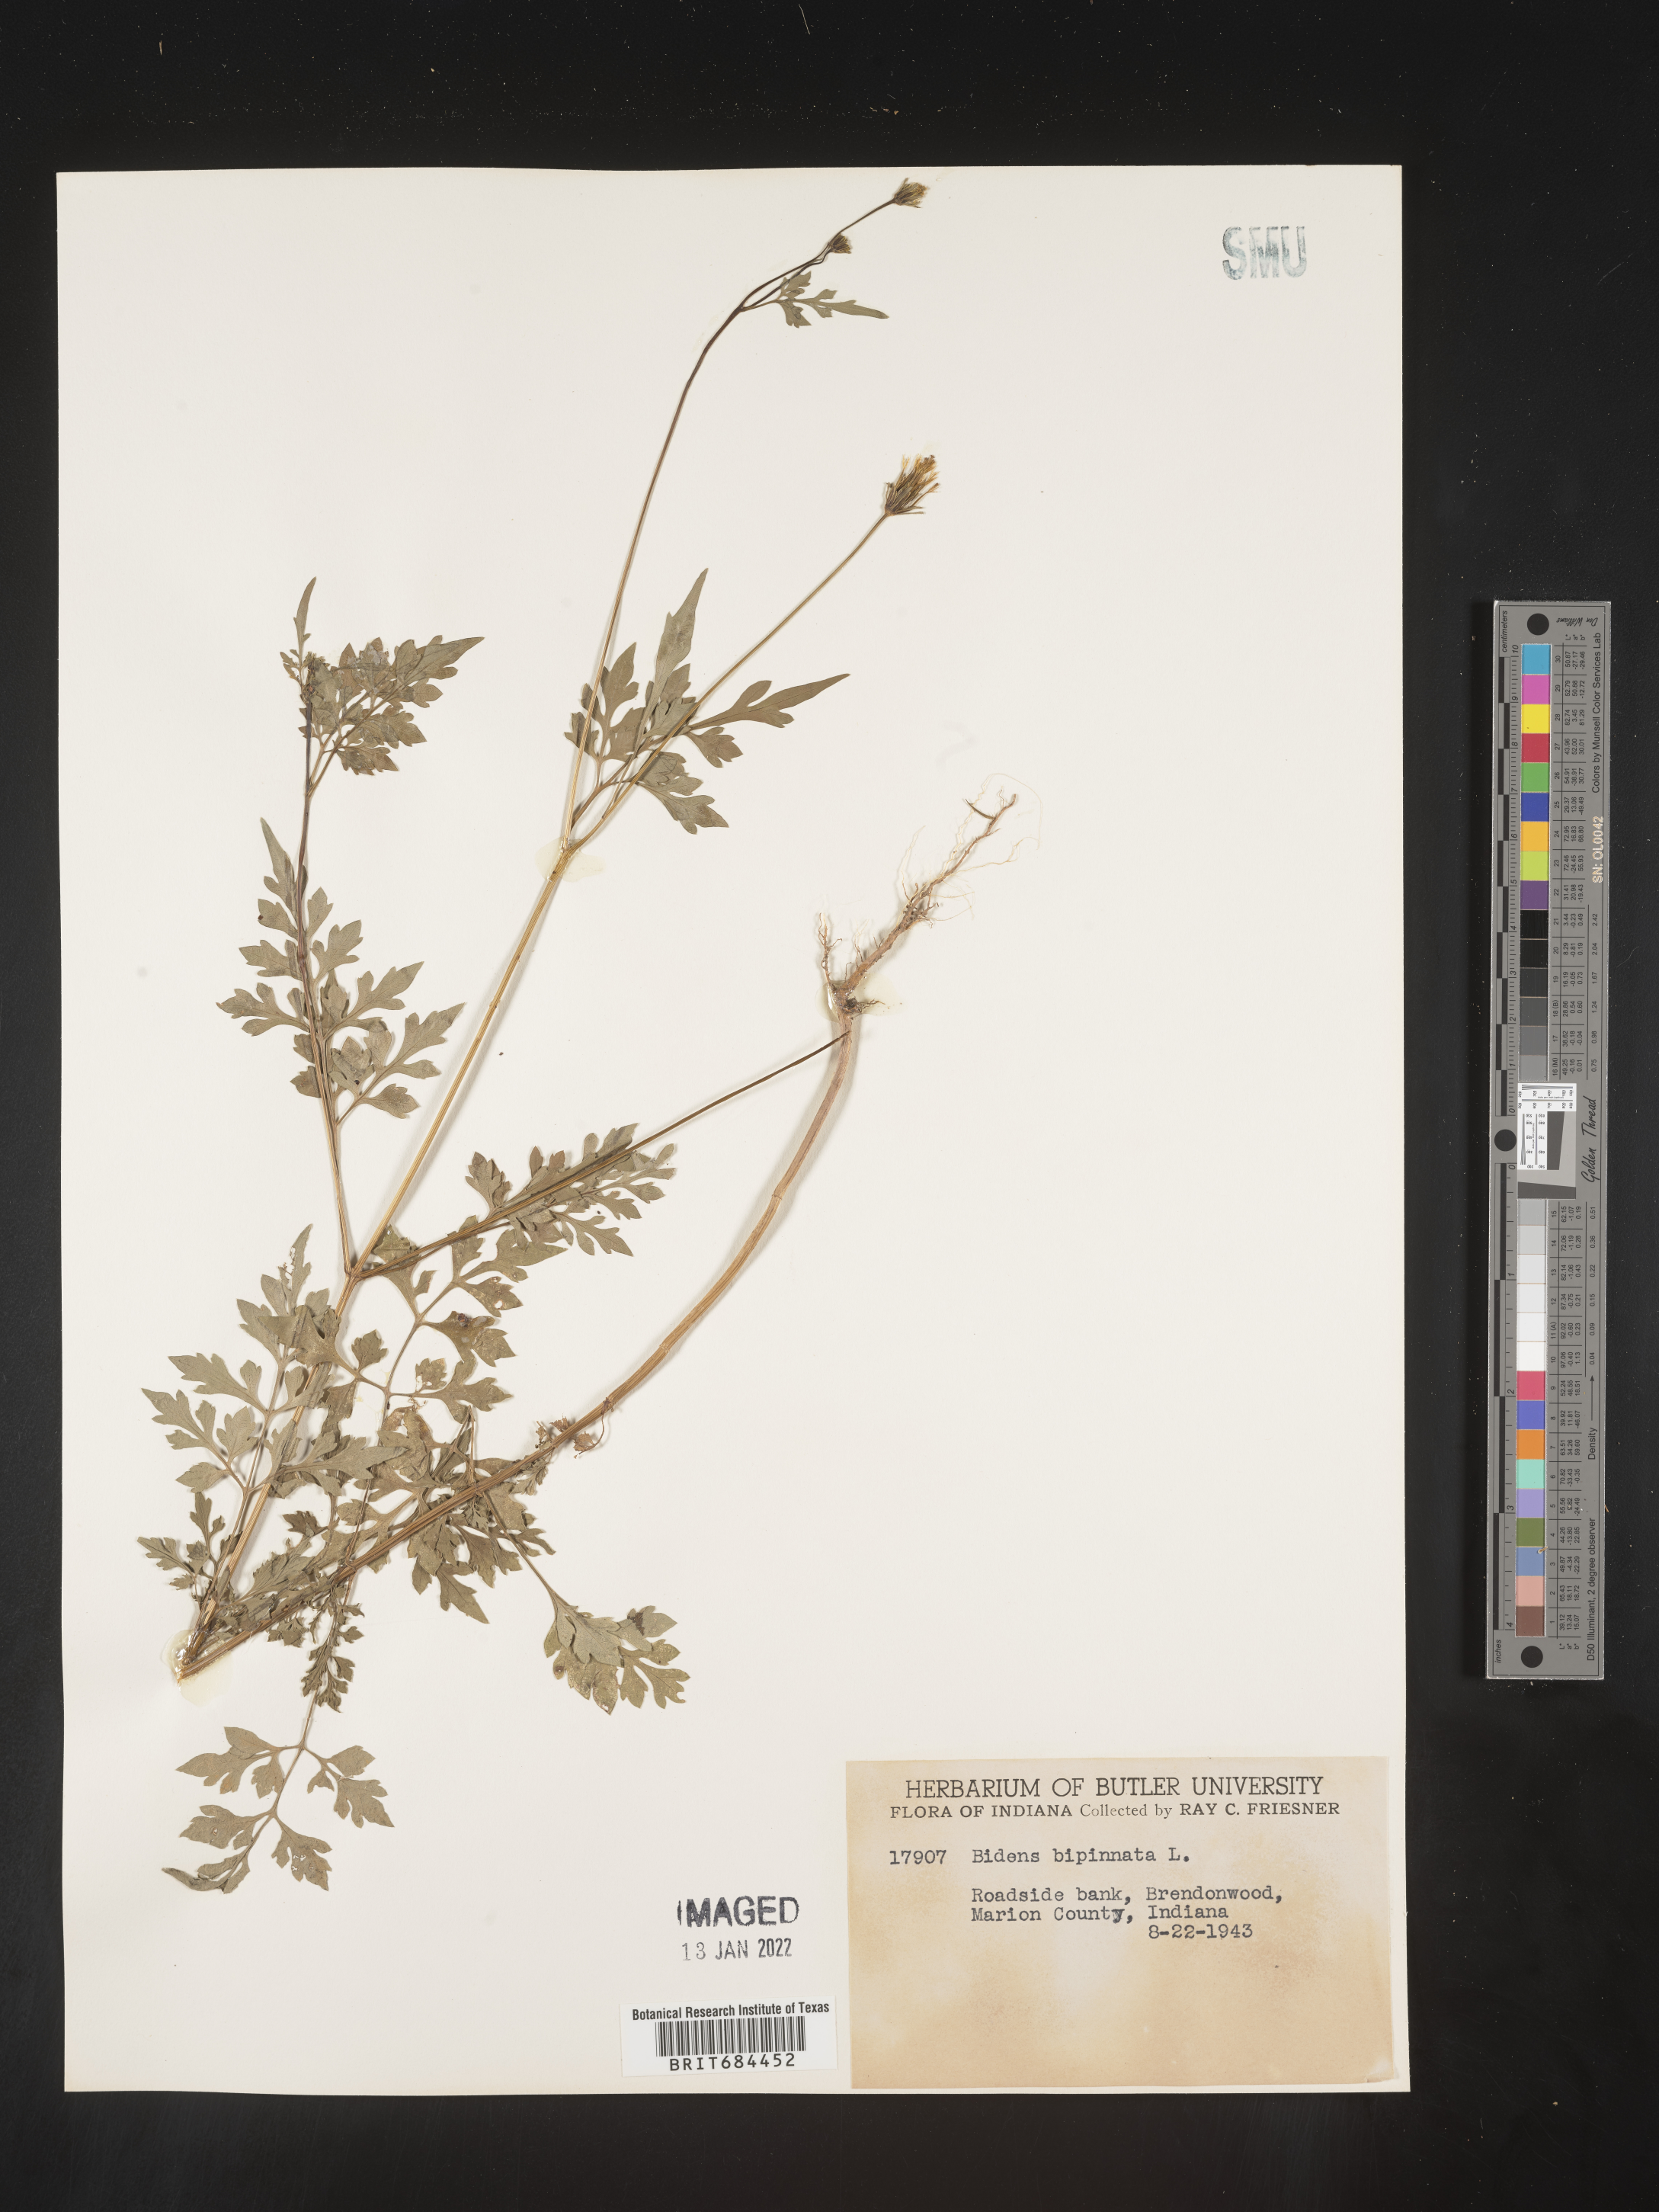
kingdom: Plantae
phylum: Tracheophyta
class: Magnoliopsida
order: Asterales
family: Asteraceae
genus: Bidens
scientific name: Bidens bipinnata
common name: Spanish-needles
